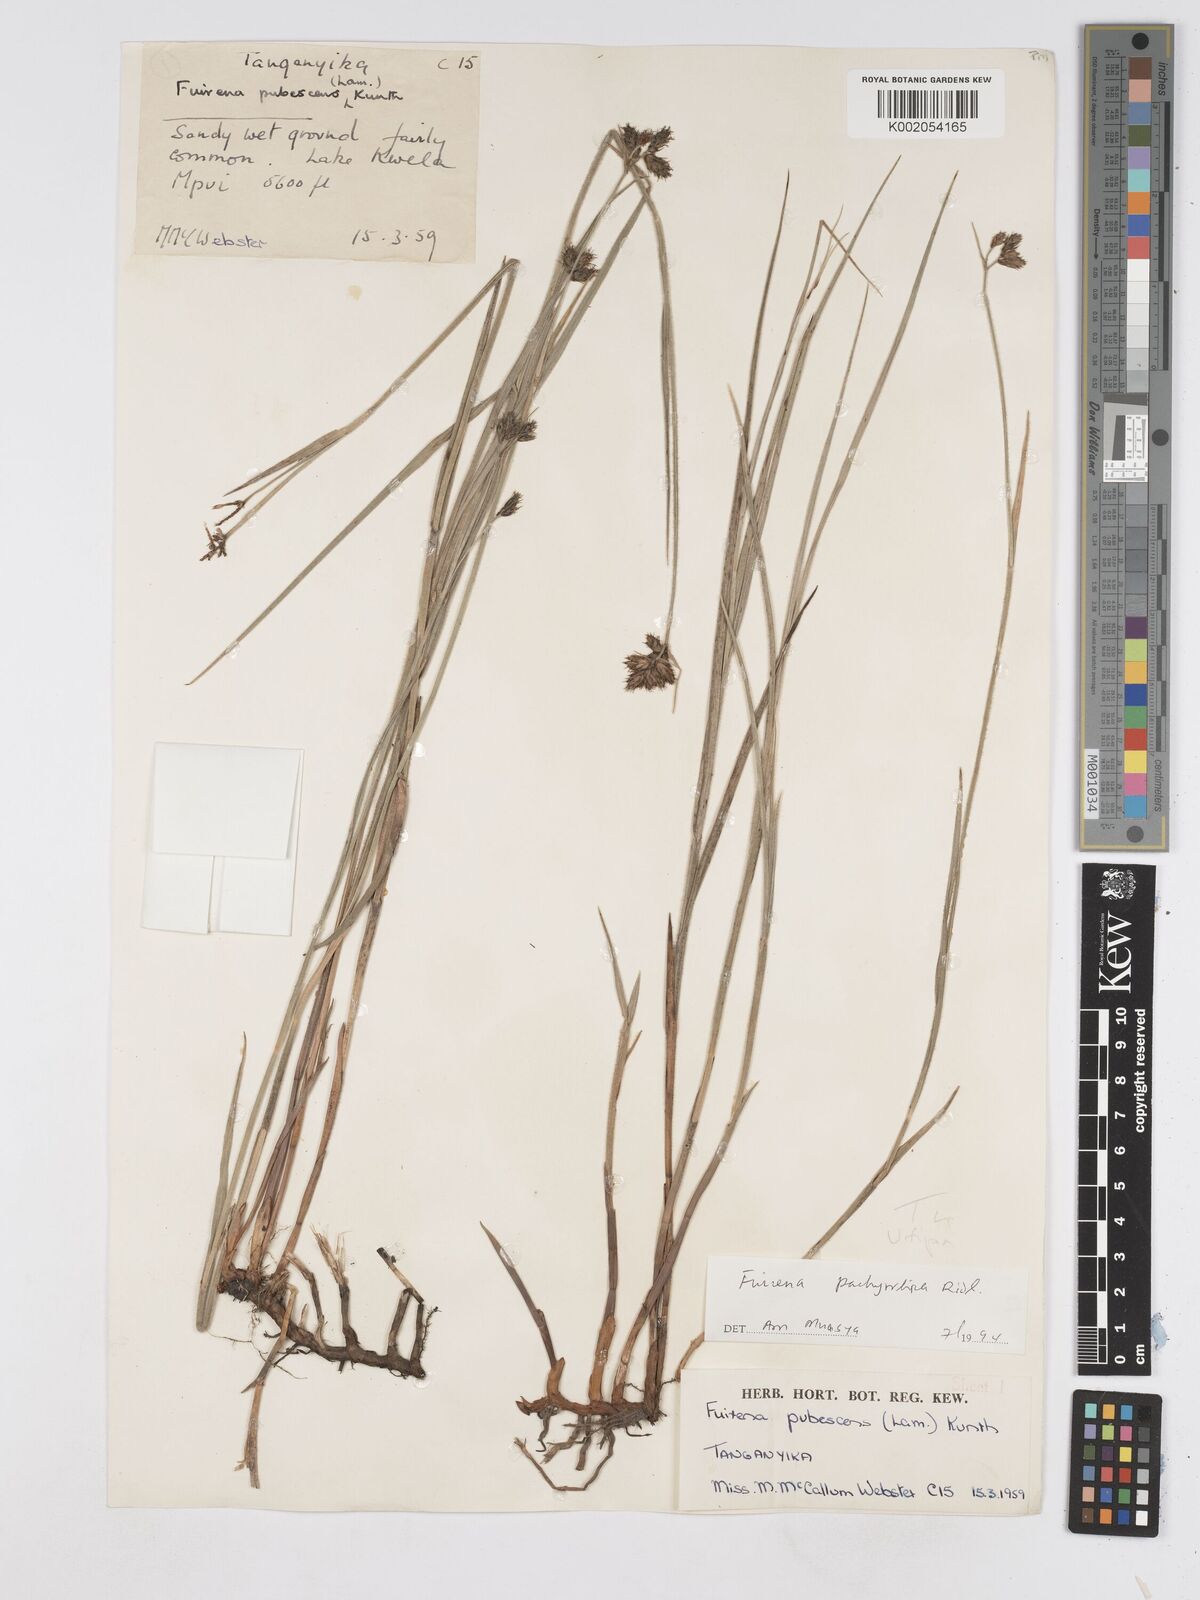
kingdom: Plantae
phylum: Tracheophyta
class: Liliopsida
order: Poales
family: Cyperaceae
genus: Fuirena
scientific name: Fuirena pachyrrhiza
